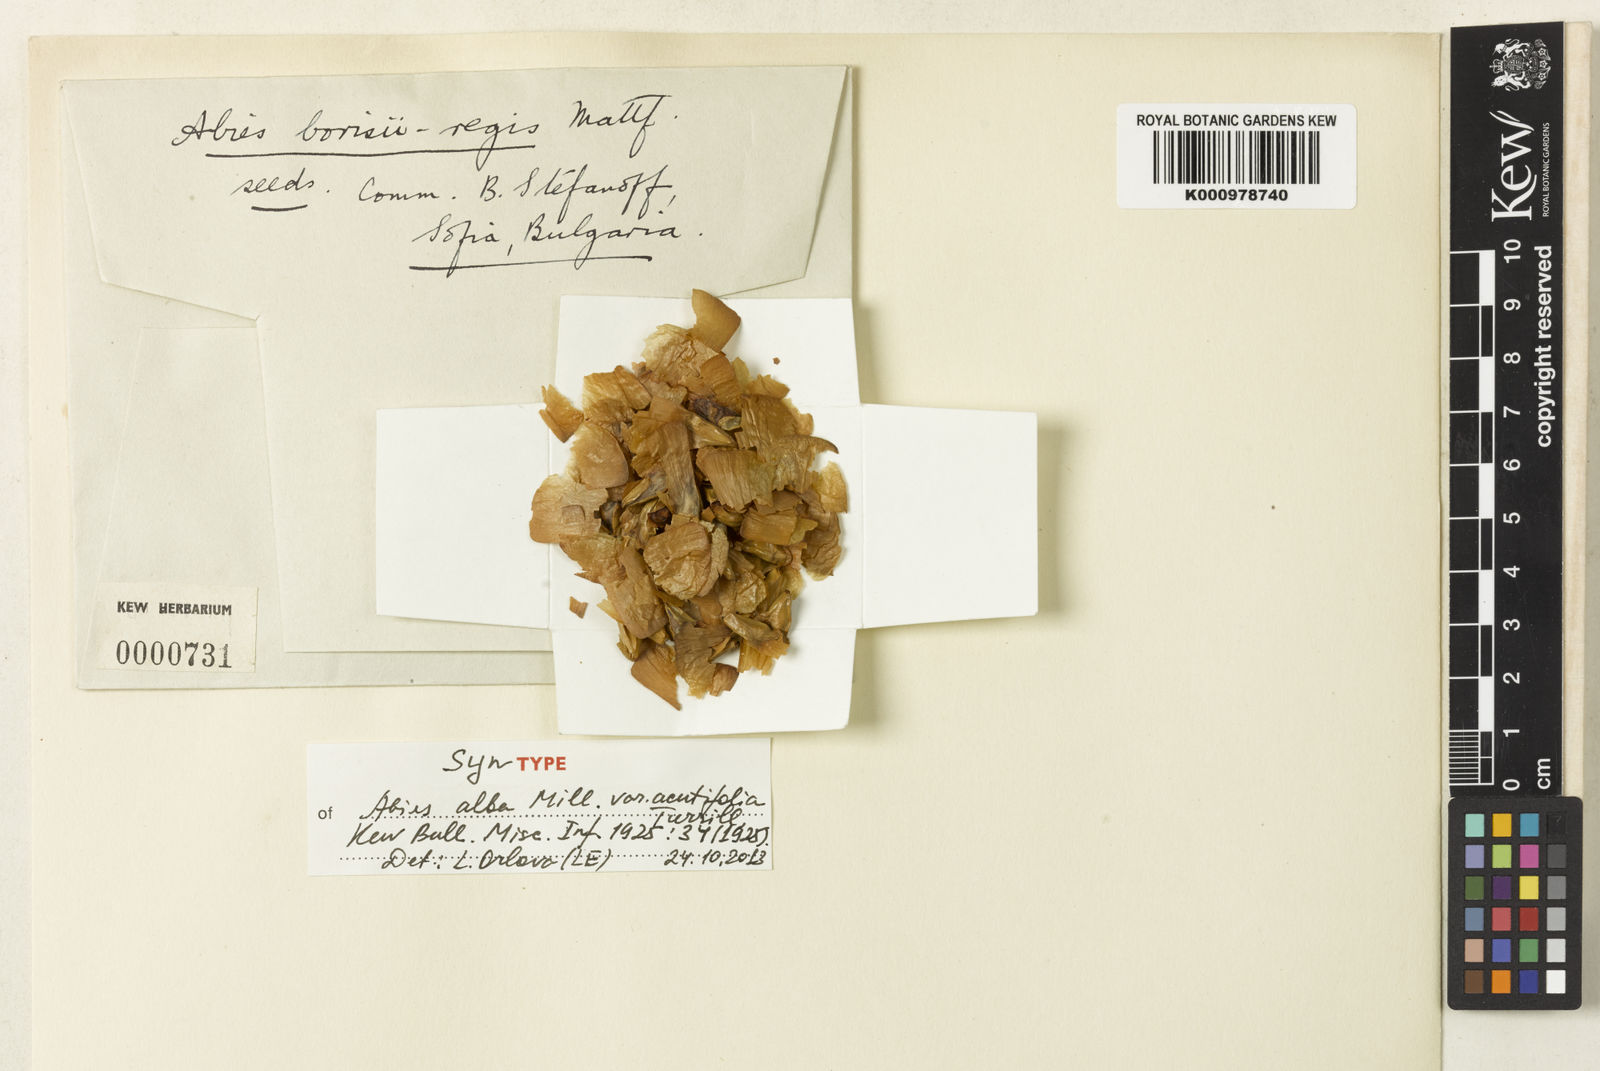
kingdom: Plantae
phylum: Tracheophyta
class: Pinopsida
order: Pinales
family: Pinaceae
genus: Abies
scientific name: Abies alba
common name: Silver fir
